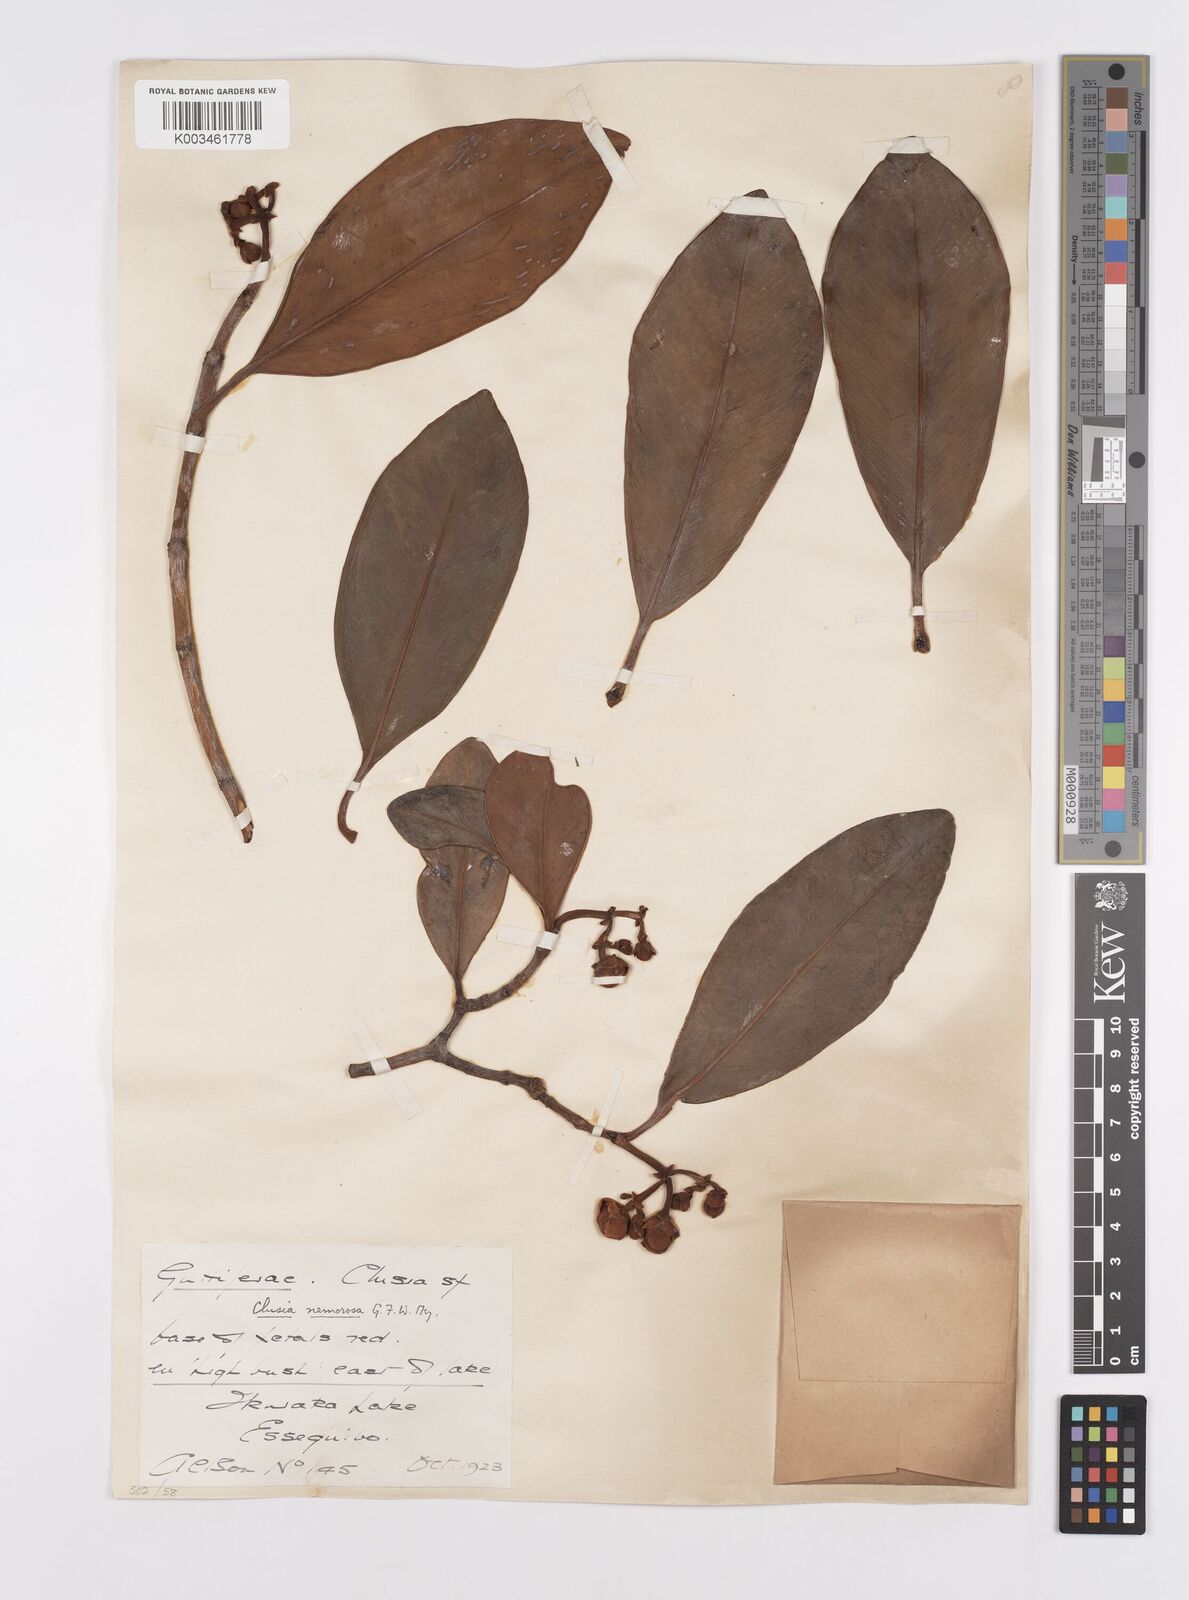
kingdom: Plantae
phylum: Tracheophyta
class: Magnoliopsida
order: Malpighiales
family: Clusiaceae
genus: Clusia
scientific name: Clusia nemorosa
